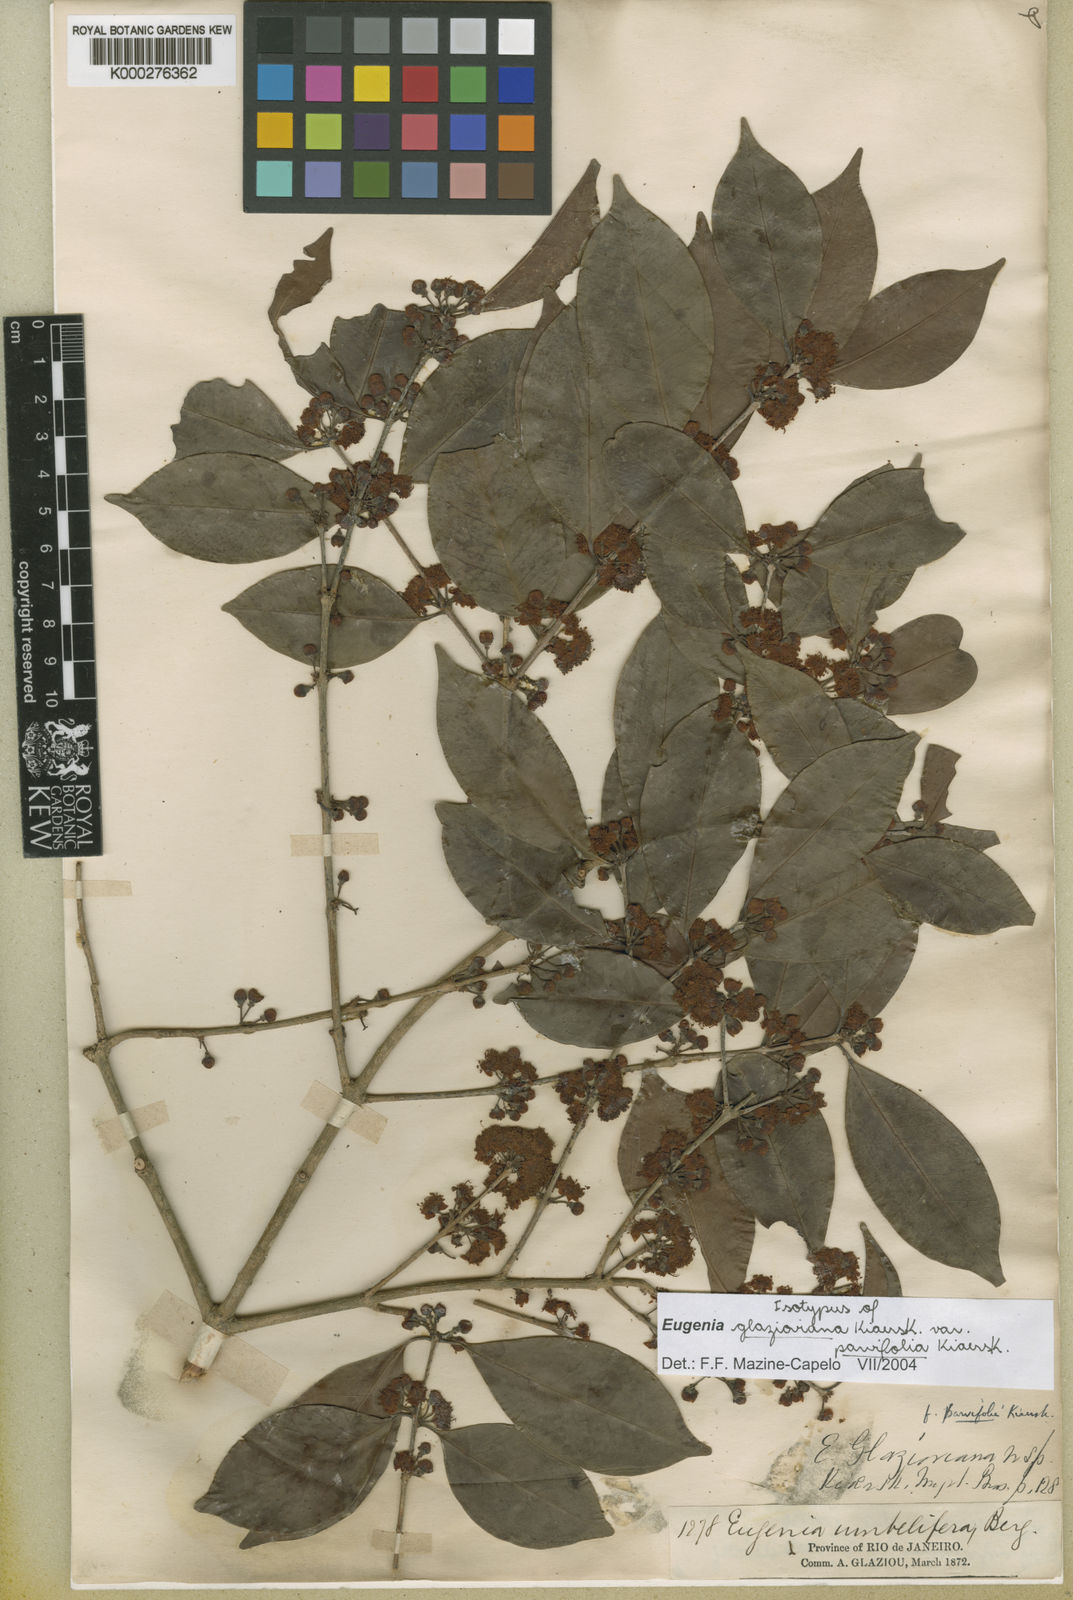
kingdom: Plantae
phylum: Tracheophyta
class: Magnoliopsida
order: Myrtales
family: Myrtaceae
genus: Eugenia
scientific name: Eugenia francavilleana
